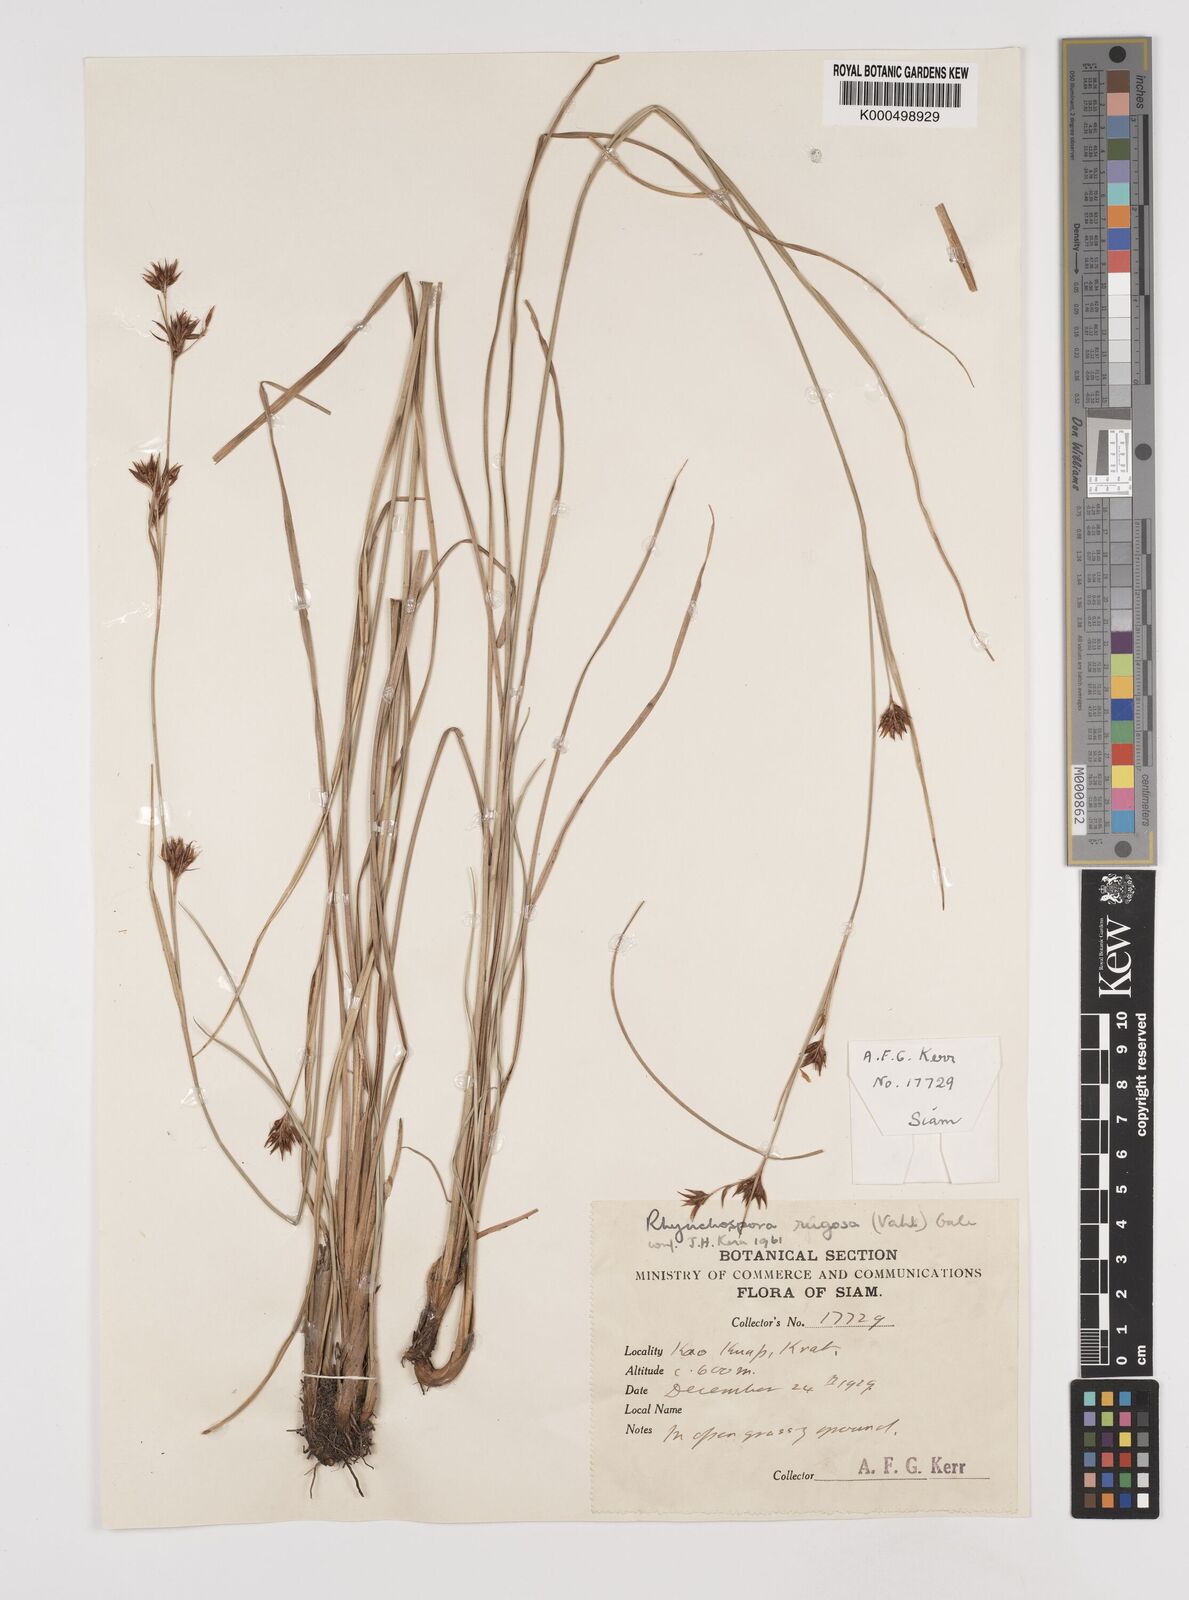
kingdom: Plantae
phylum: Tracheophyta
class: Liliopsida
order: Poales
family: Cyperaceae
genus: Rhynchospora
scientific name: Rhynchospora chinensis
